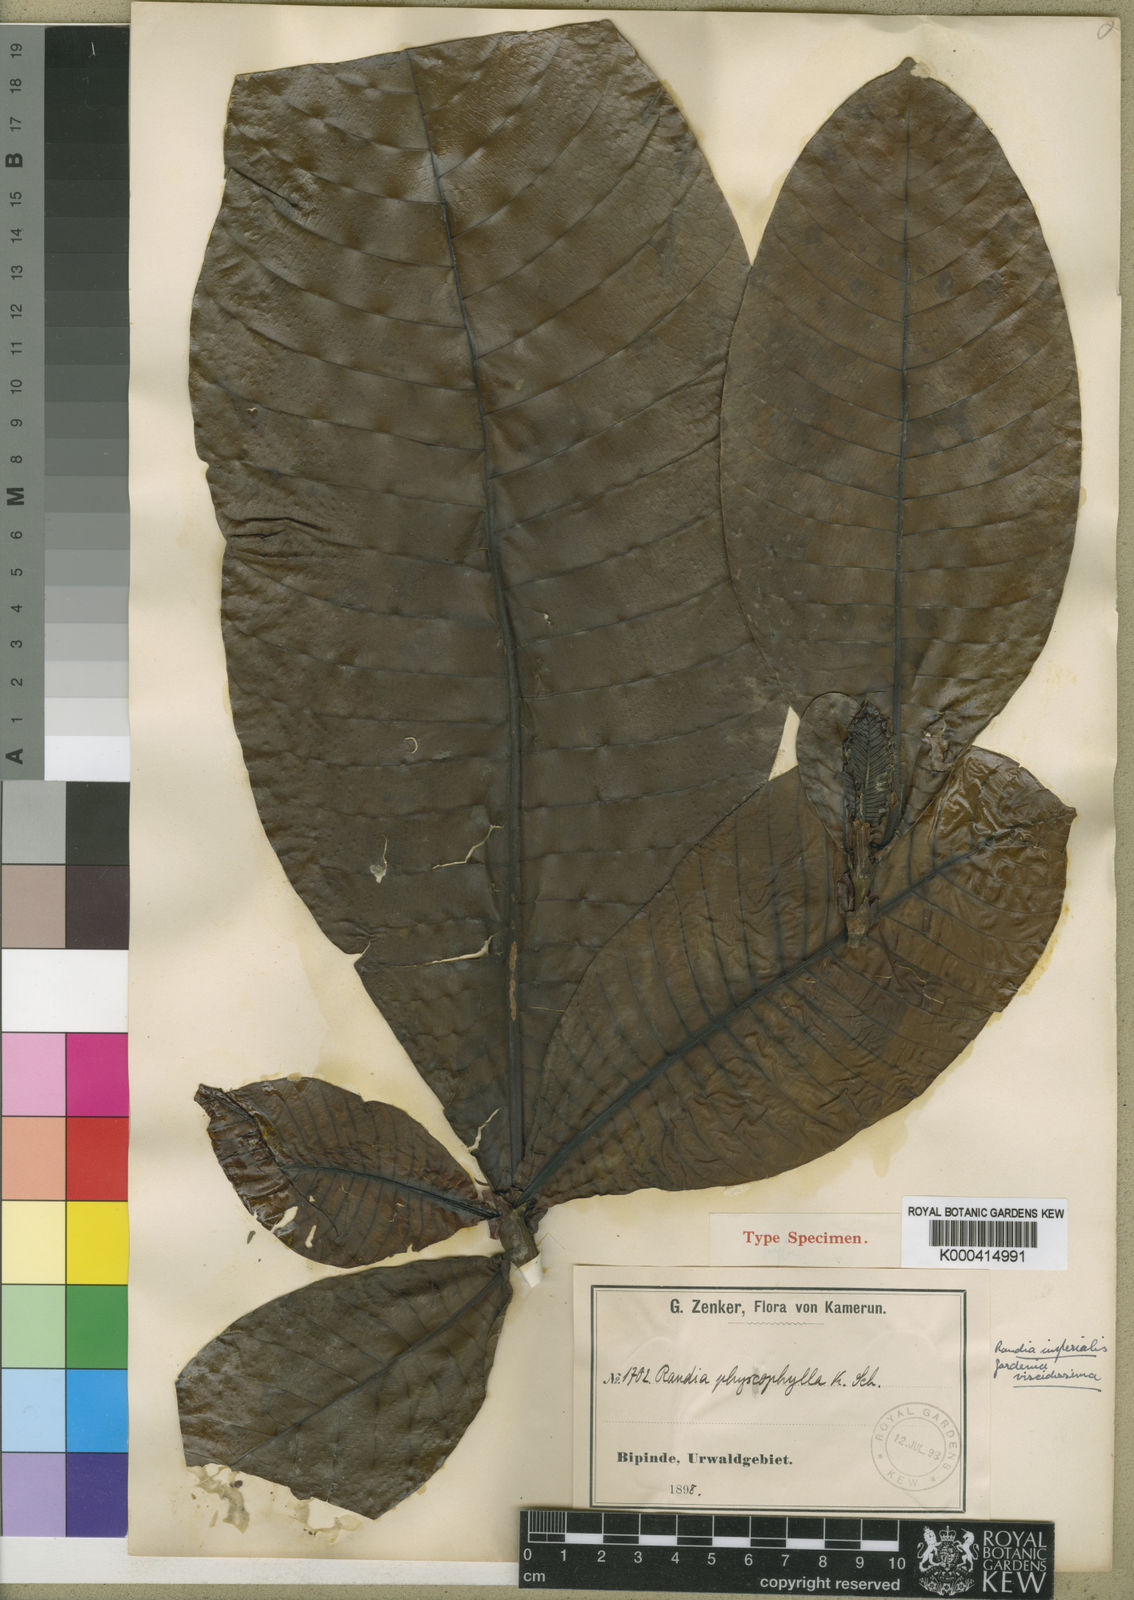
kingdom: Plantae
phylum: Tracheophyta
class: Magnoliopsida
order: Gentianales
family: Rubiaceae
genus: Gardenia
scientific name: Gardenia imperialis
